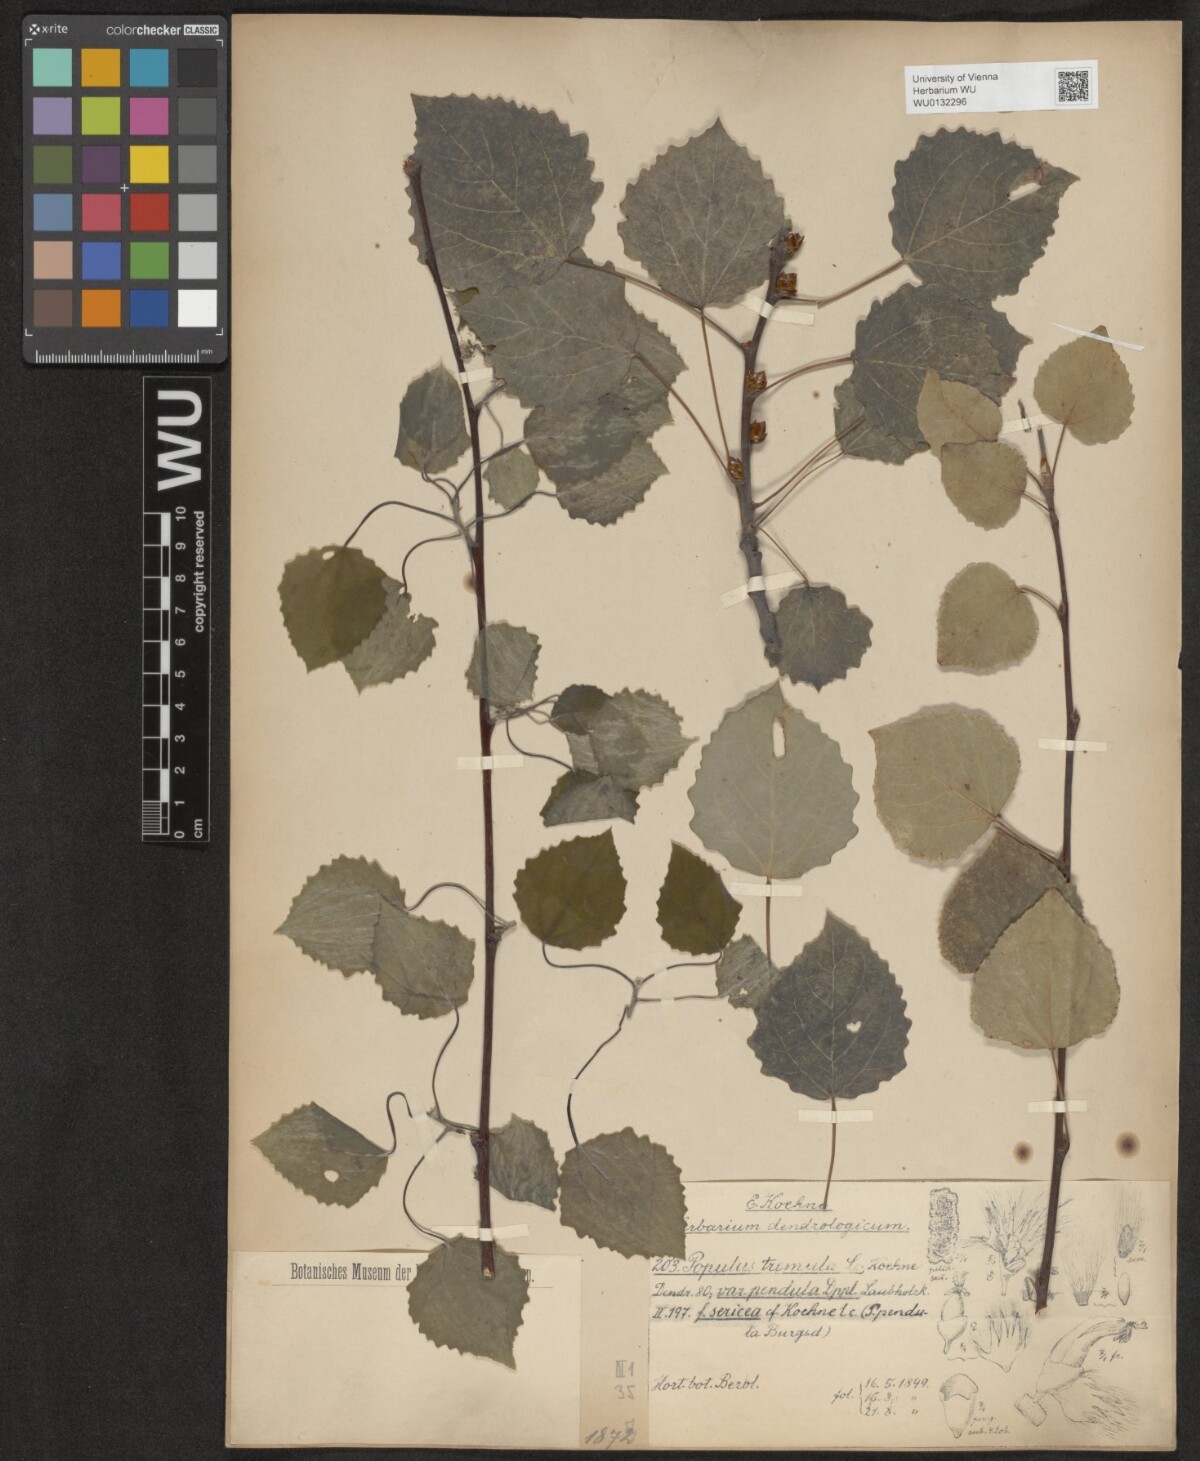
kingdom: Plantae
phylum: Tracheophyta
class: Magnoliopsida
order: Malpighiales
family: Salicaceae
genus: Populus
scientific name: Populus tremula
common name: European aspen
